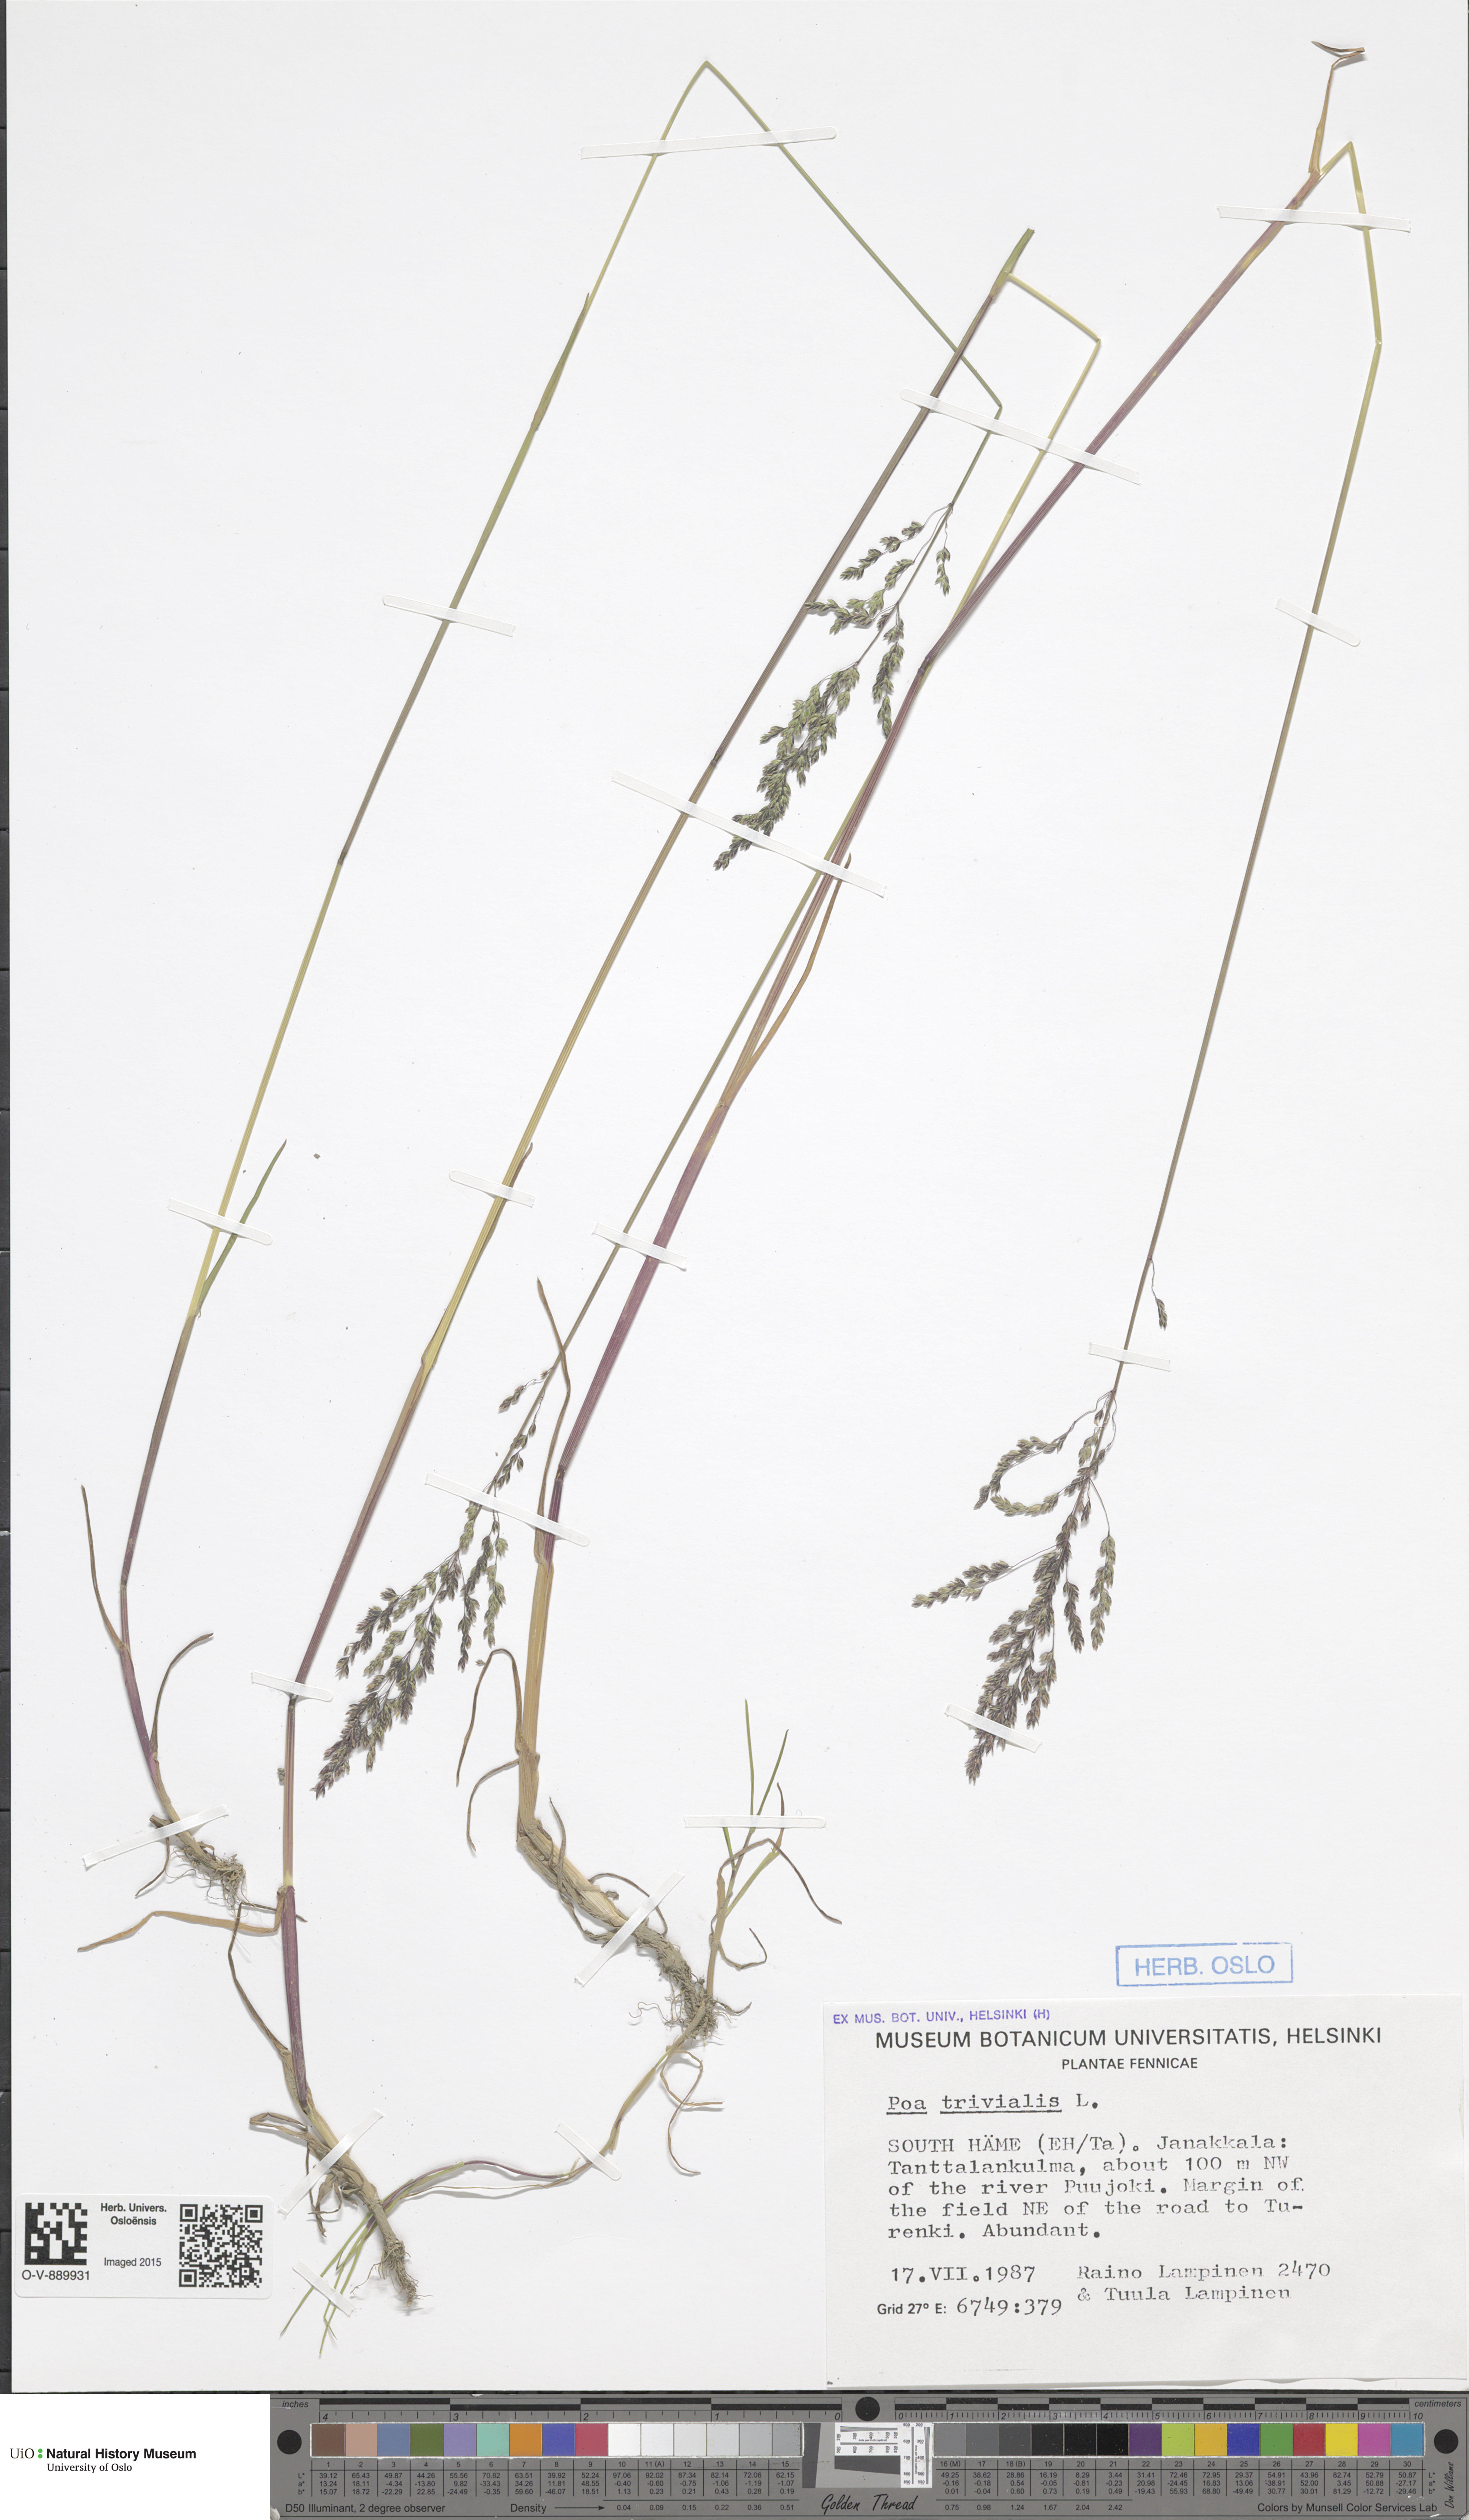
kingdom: Plantae
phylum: Tracheophyta
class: Liliopsida
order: Poales
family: Poaceae
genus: Poa
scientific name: Poa trivialis
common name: Rough bluegrass
